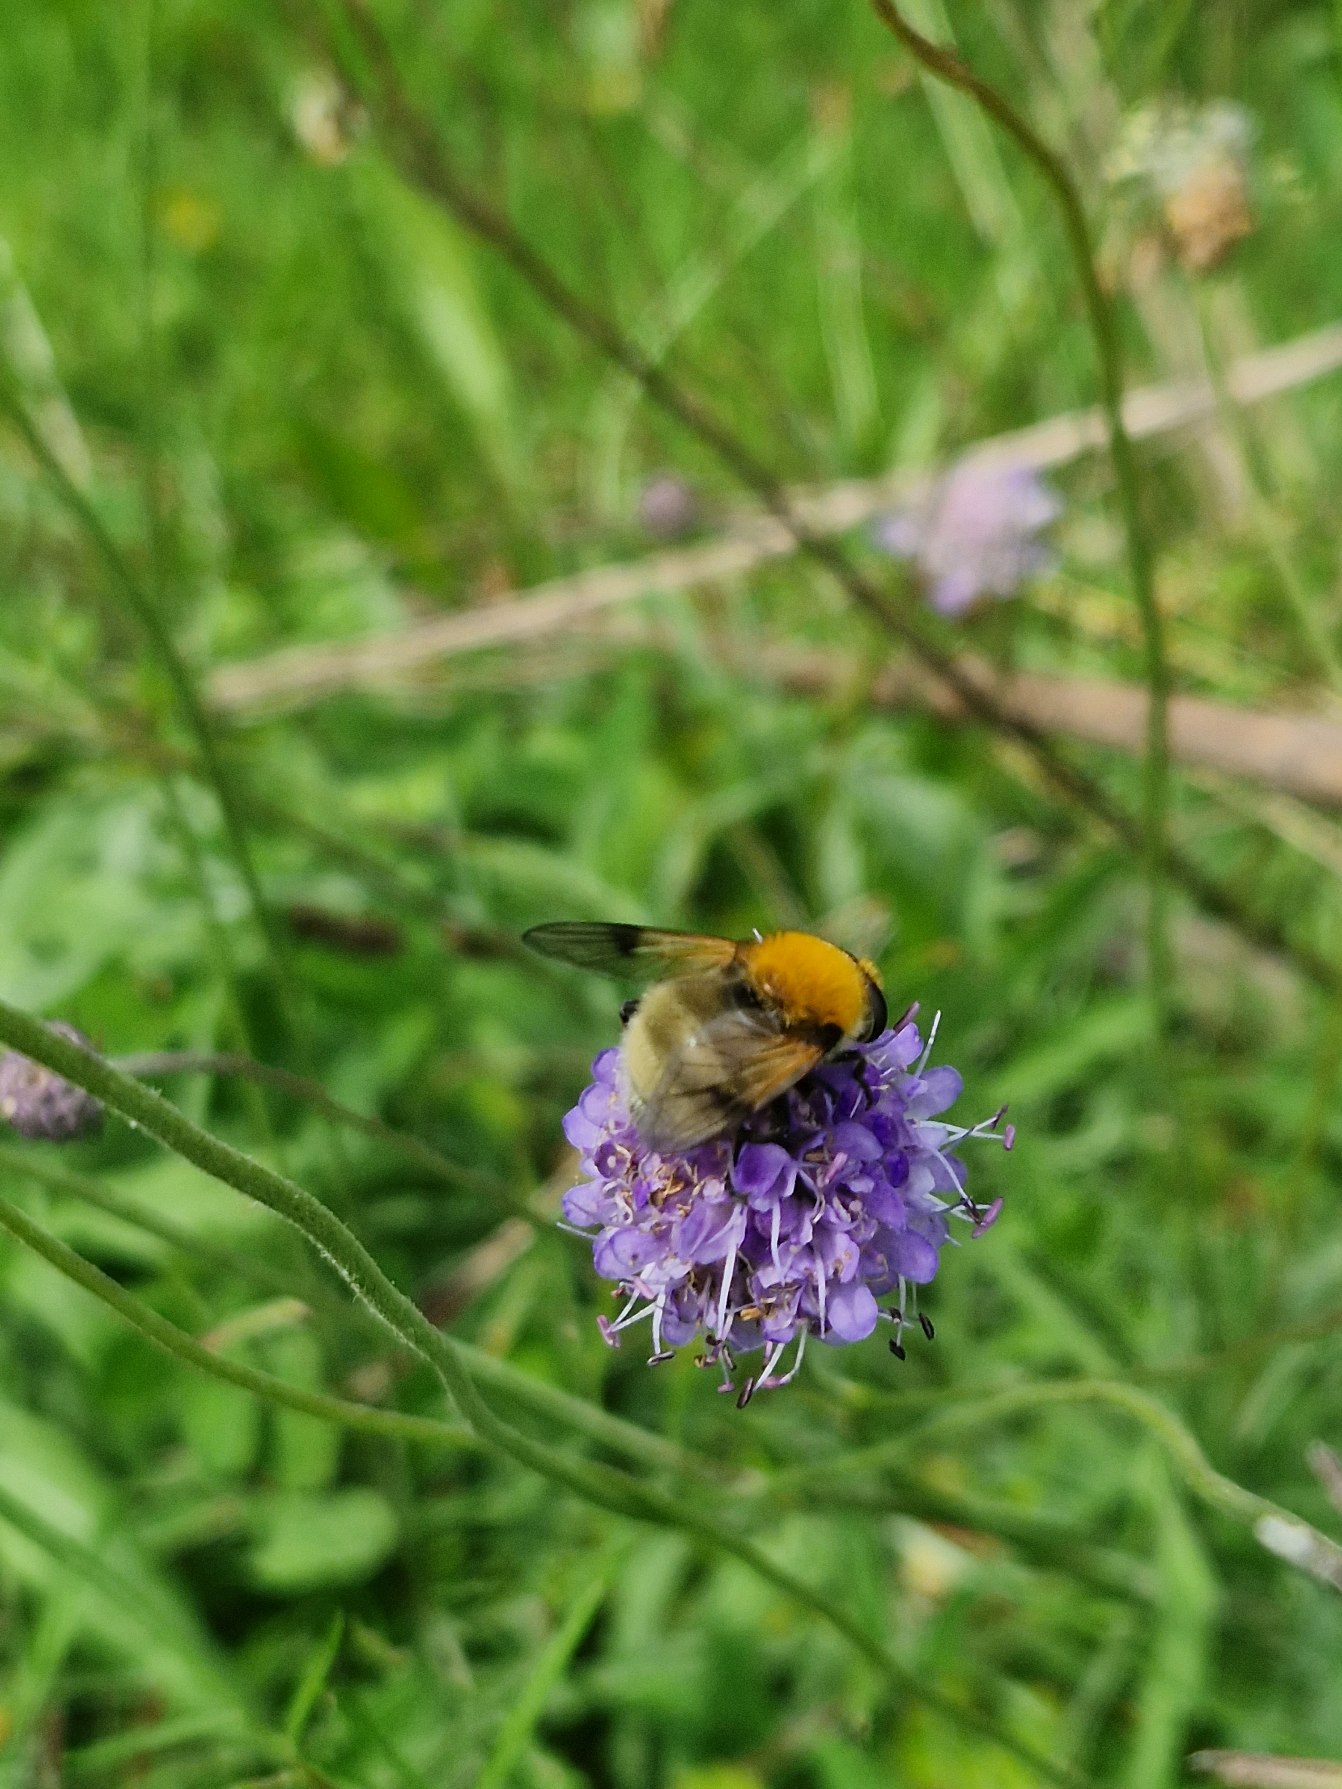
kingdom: Animalia
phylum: Arthropoda
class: Insecta
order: Diptera
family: Syrphidae
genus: Sericomyia
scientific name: Sericomyia superbiens
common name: Brun bjørnesvirreflue
